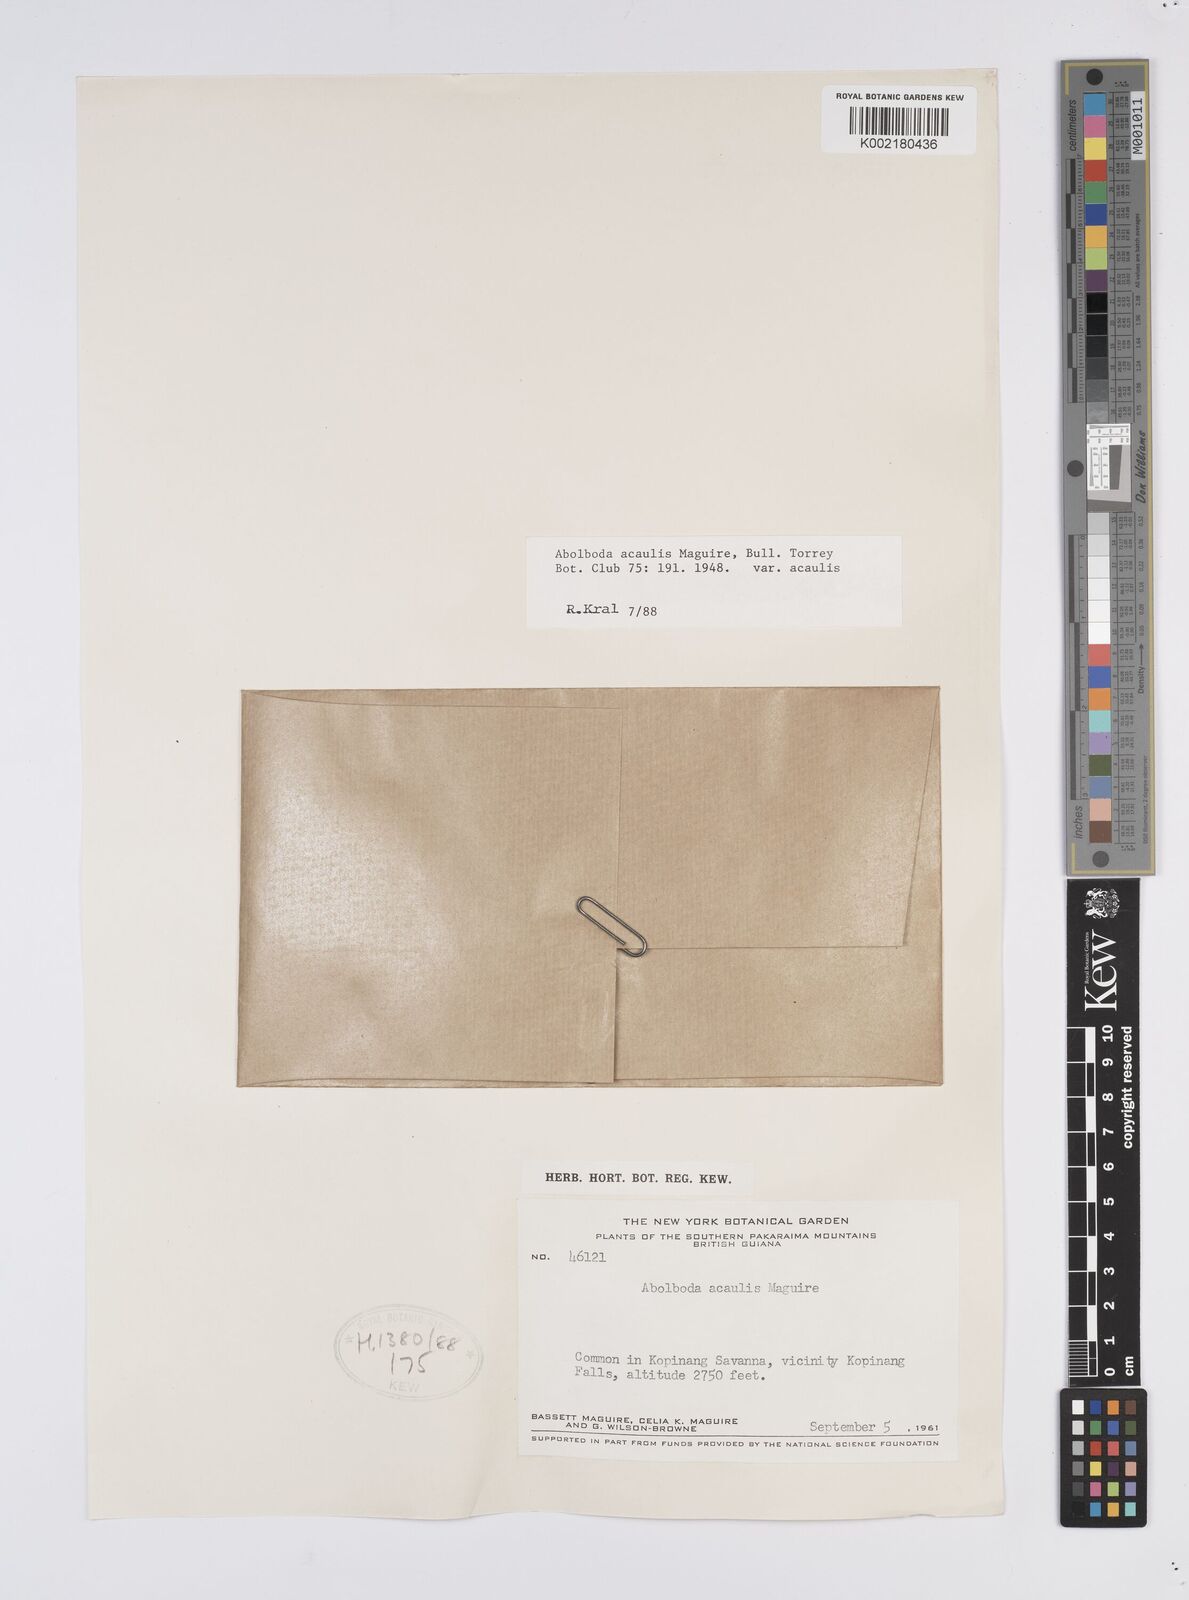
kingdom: Plantae
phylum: Tracheophyta
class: Liliopsida
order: Poales
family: Xyridaceae
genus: Abolboda
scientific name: Abolboda acaulis
